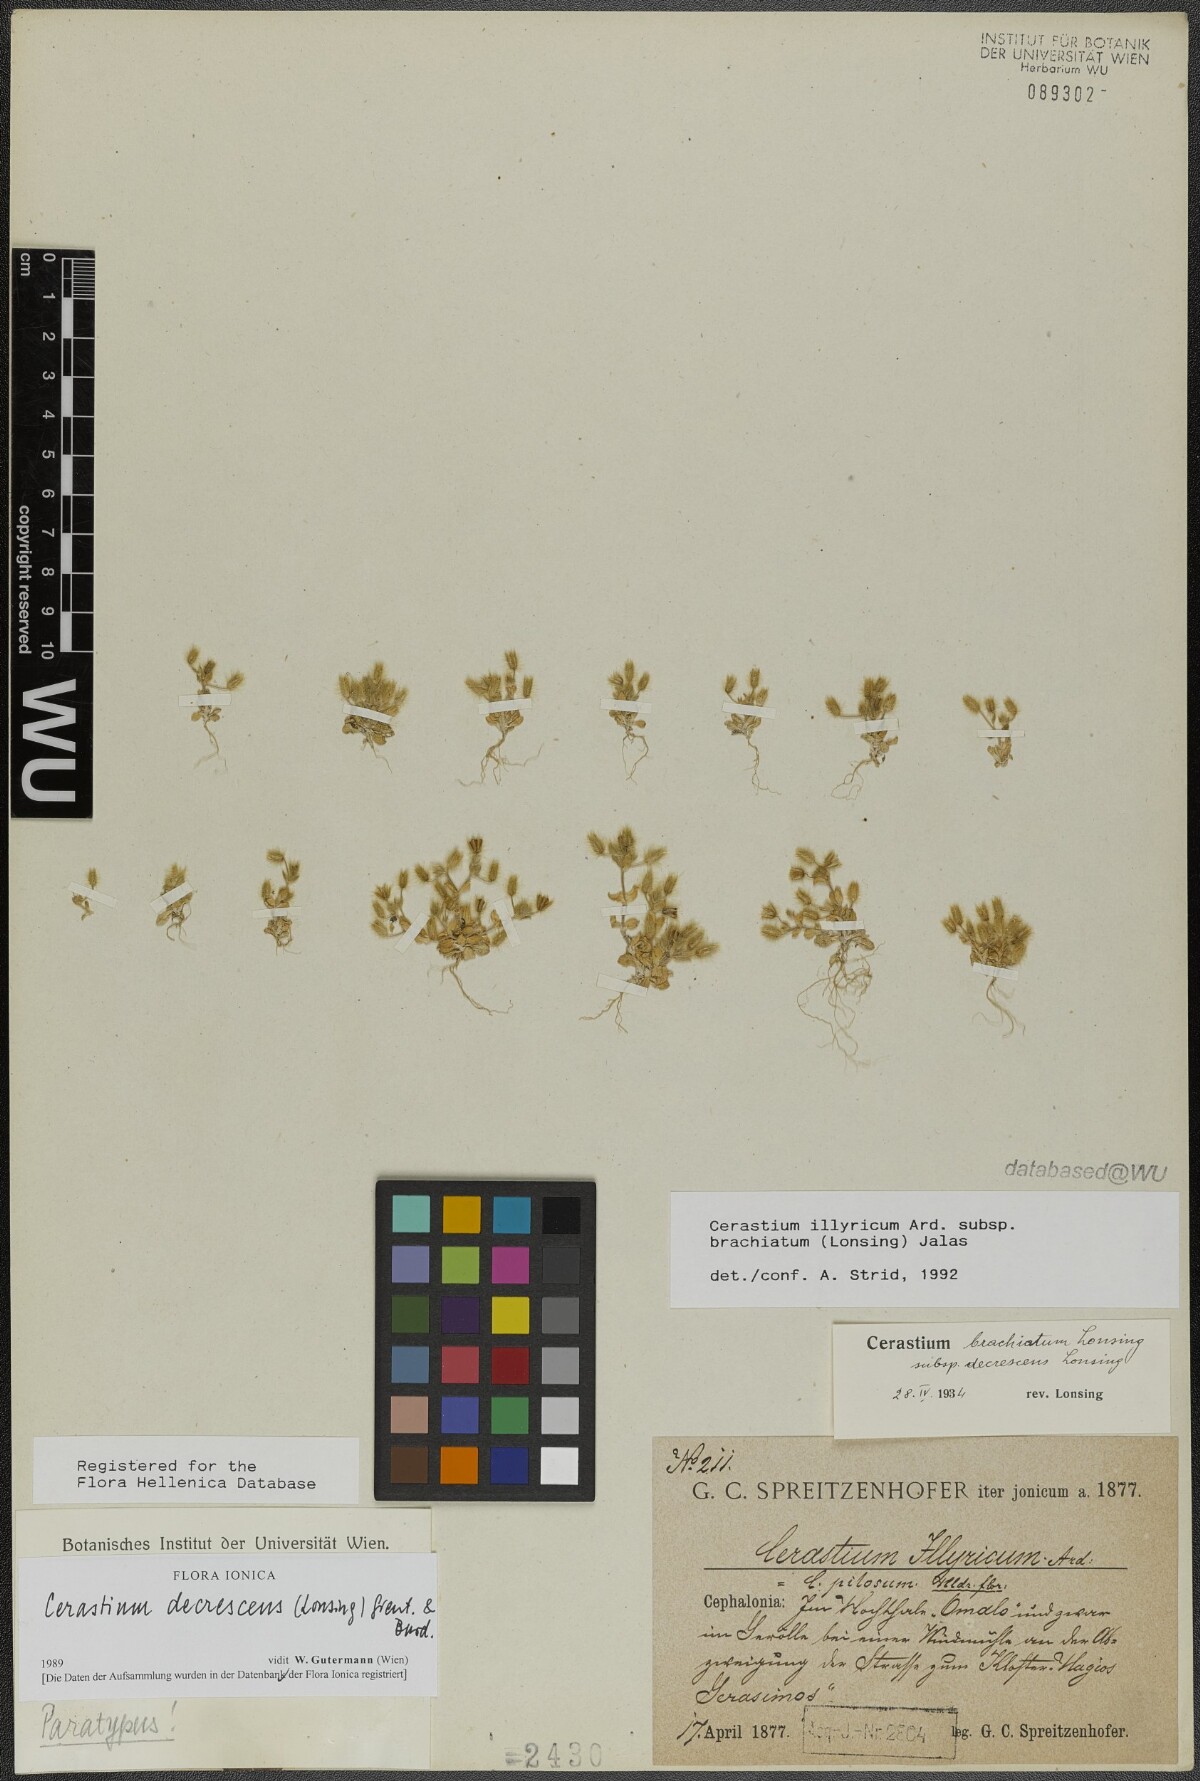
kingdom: Plantae
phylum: Tracheophyta
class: Magnoliopsida
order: Caryophyllales
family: Caryophyllaceae
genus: Cerastium
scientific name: Cerastium illyricum
